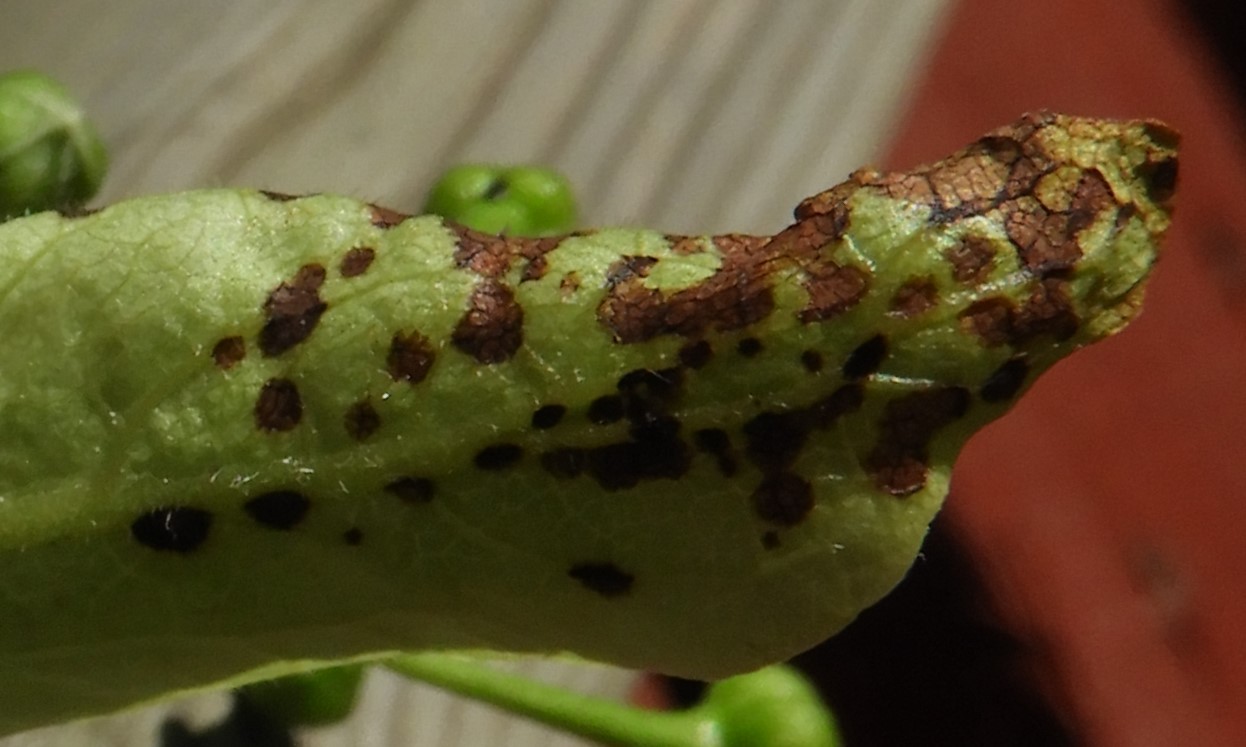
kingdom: Fungi
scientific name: Fungi
